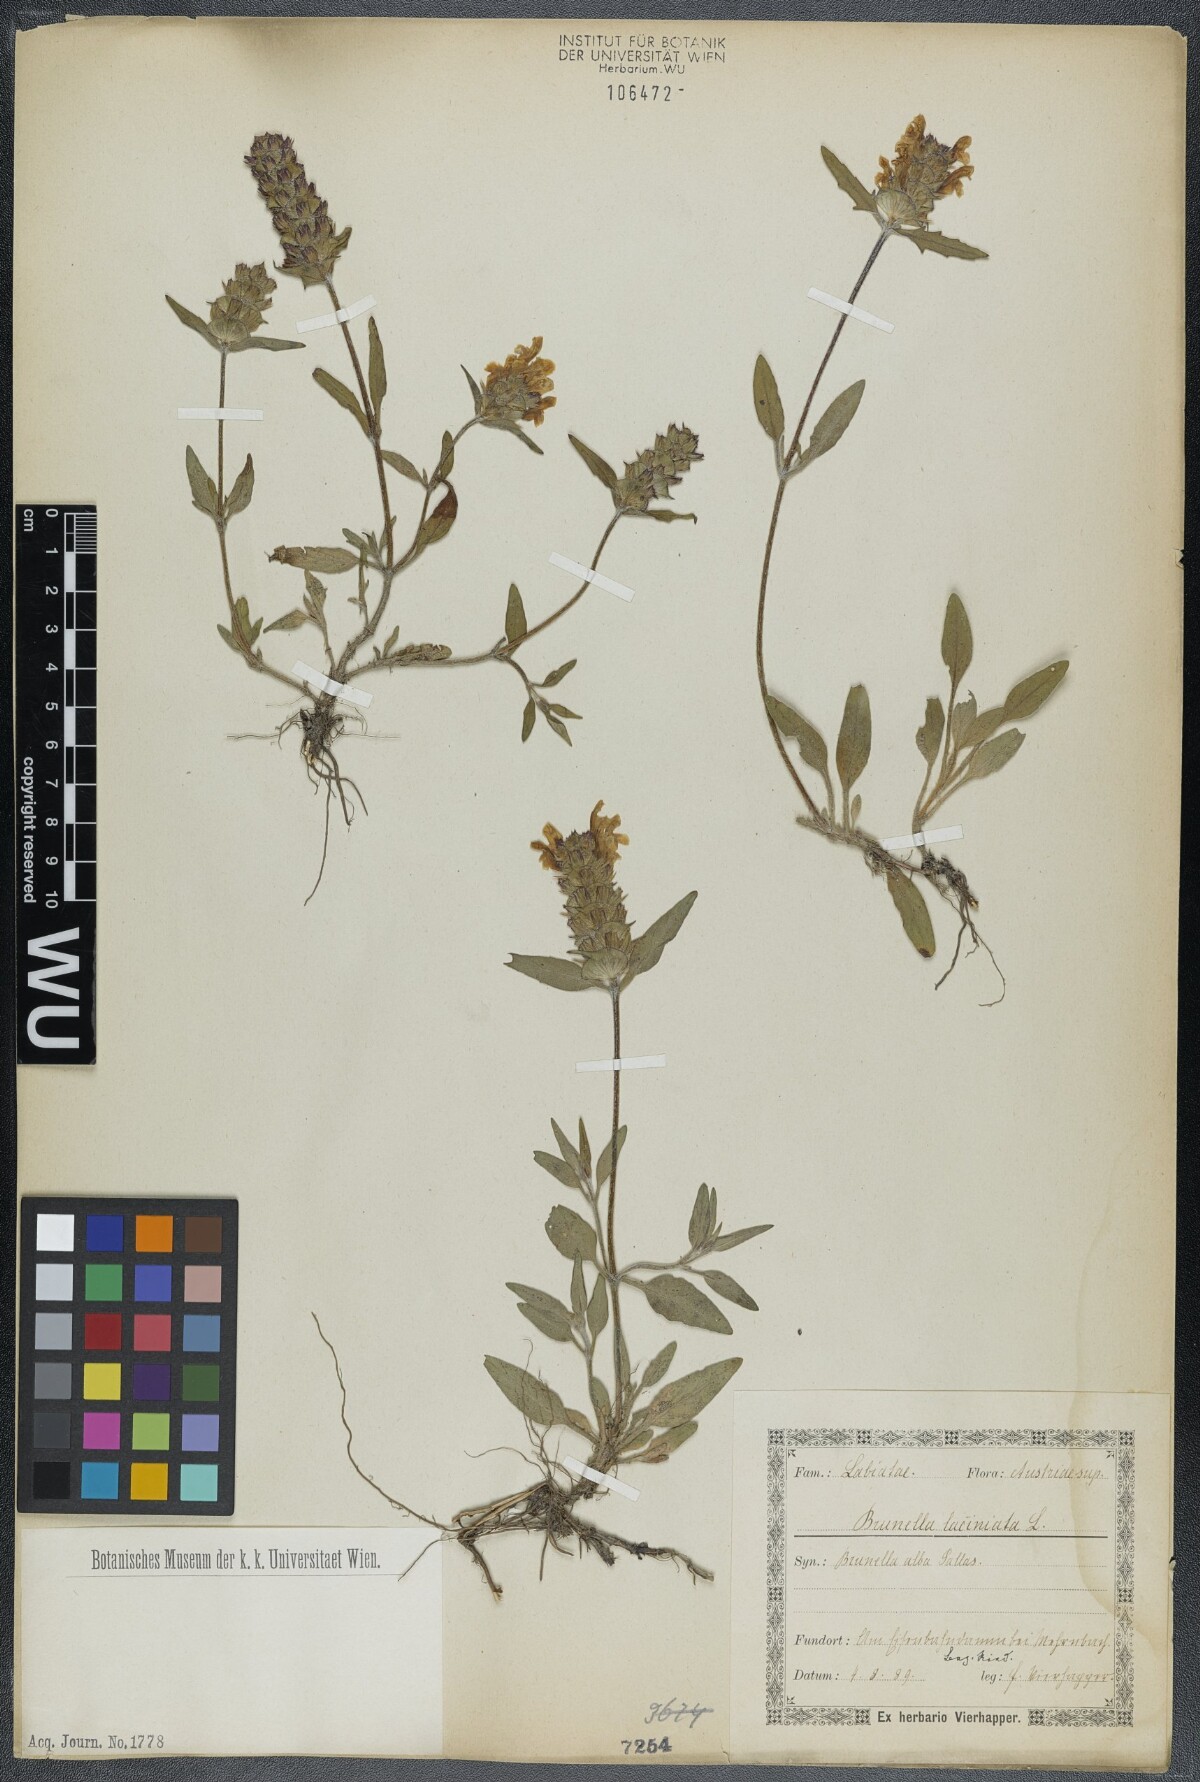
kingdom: Plantae
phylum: Tracheophyta
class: Magnoliopsida
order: Lamiales
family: Lamiaceae
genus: Prunella
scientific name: Prunella laciniata
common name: Cut-leaved selfheal
